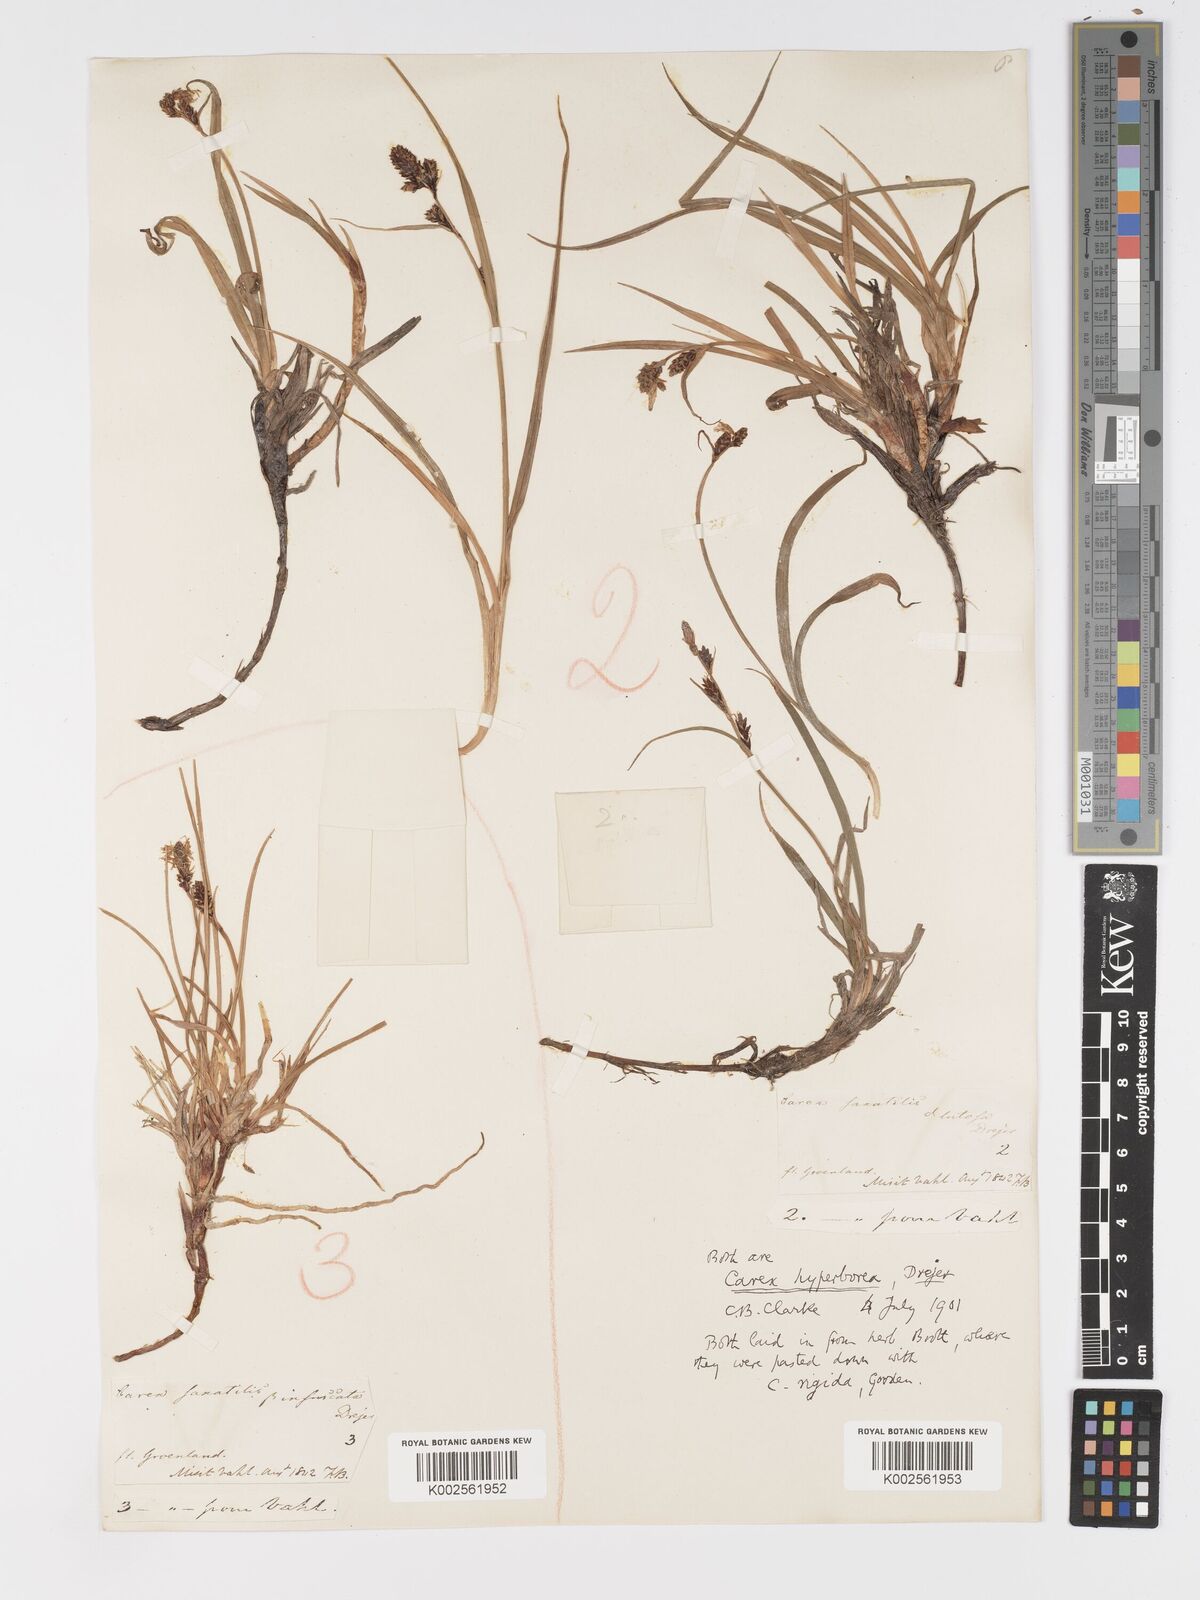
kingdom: Plantae
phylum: Tracheophyta
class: Liliopsida
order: Poales
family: Cyperaceae
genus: Carex
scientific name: Carex bigelowii
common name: Stiff sedge
